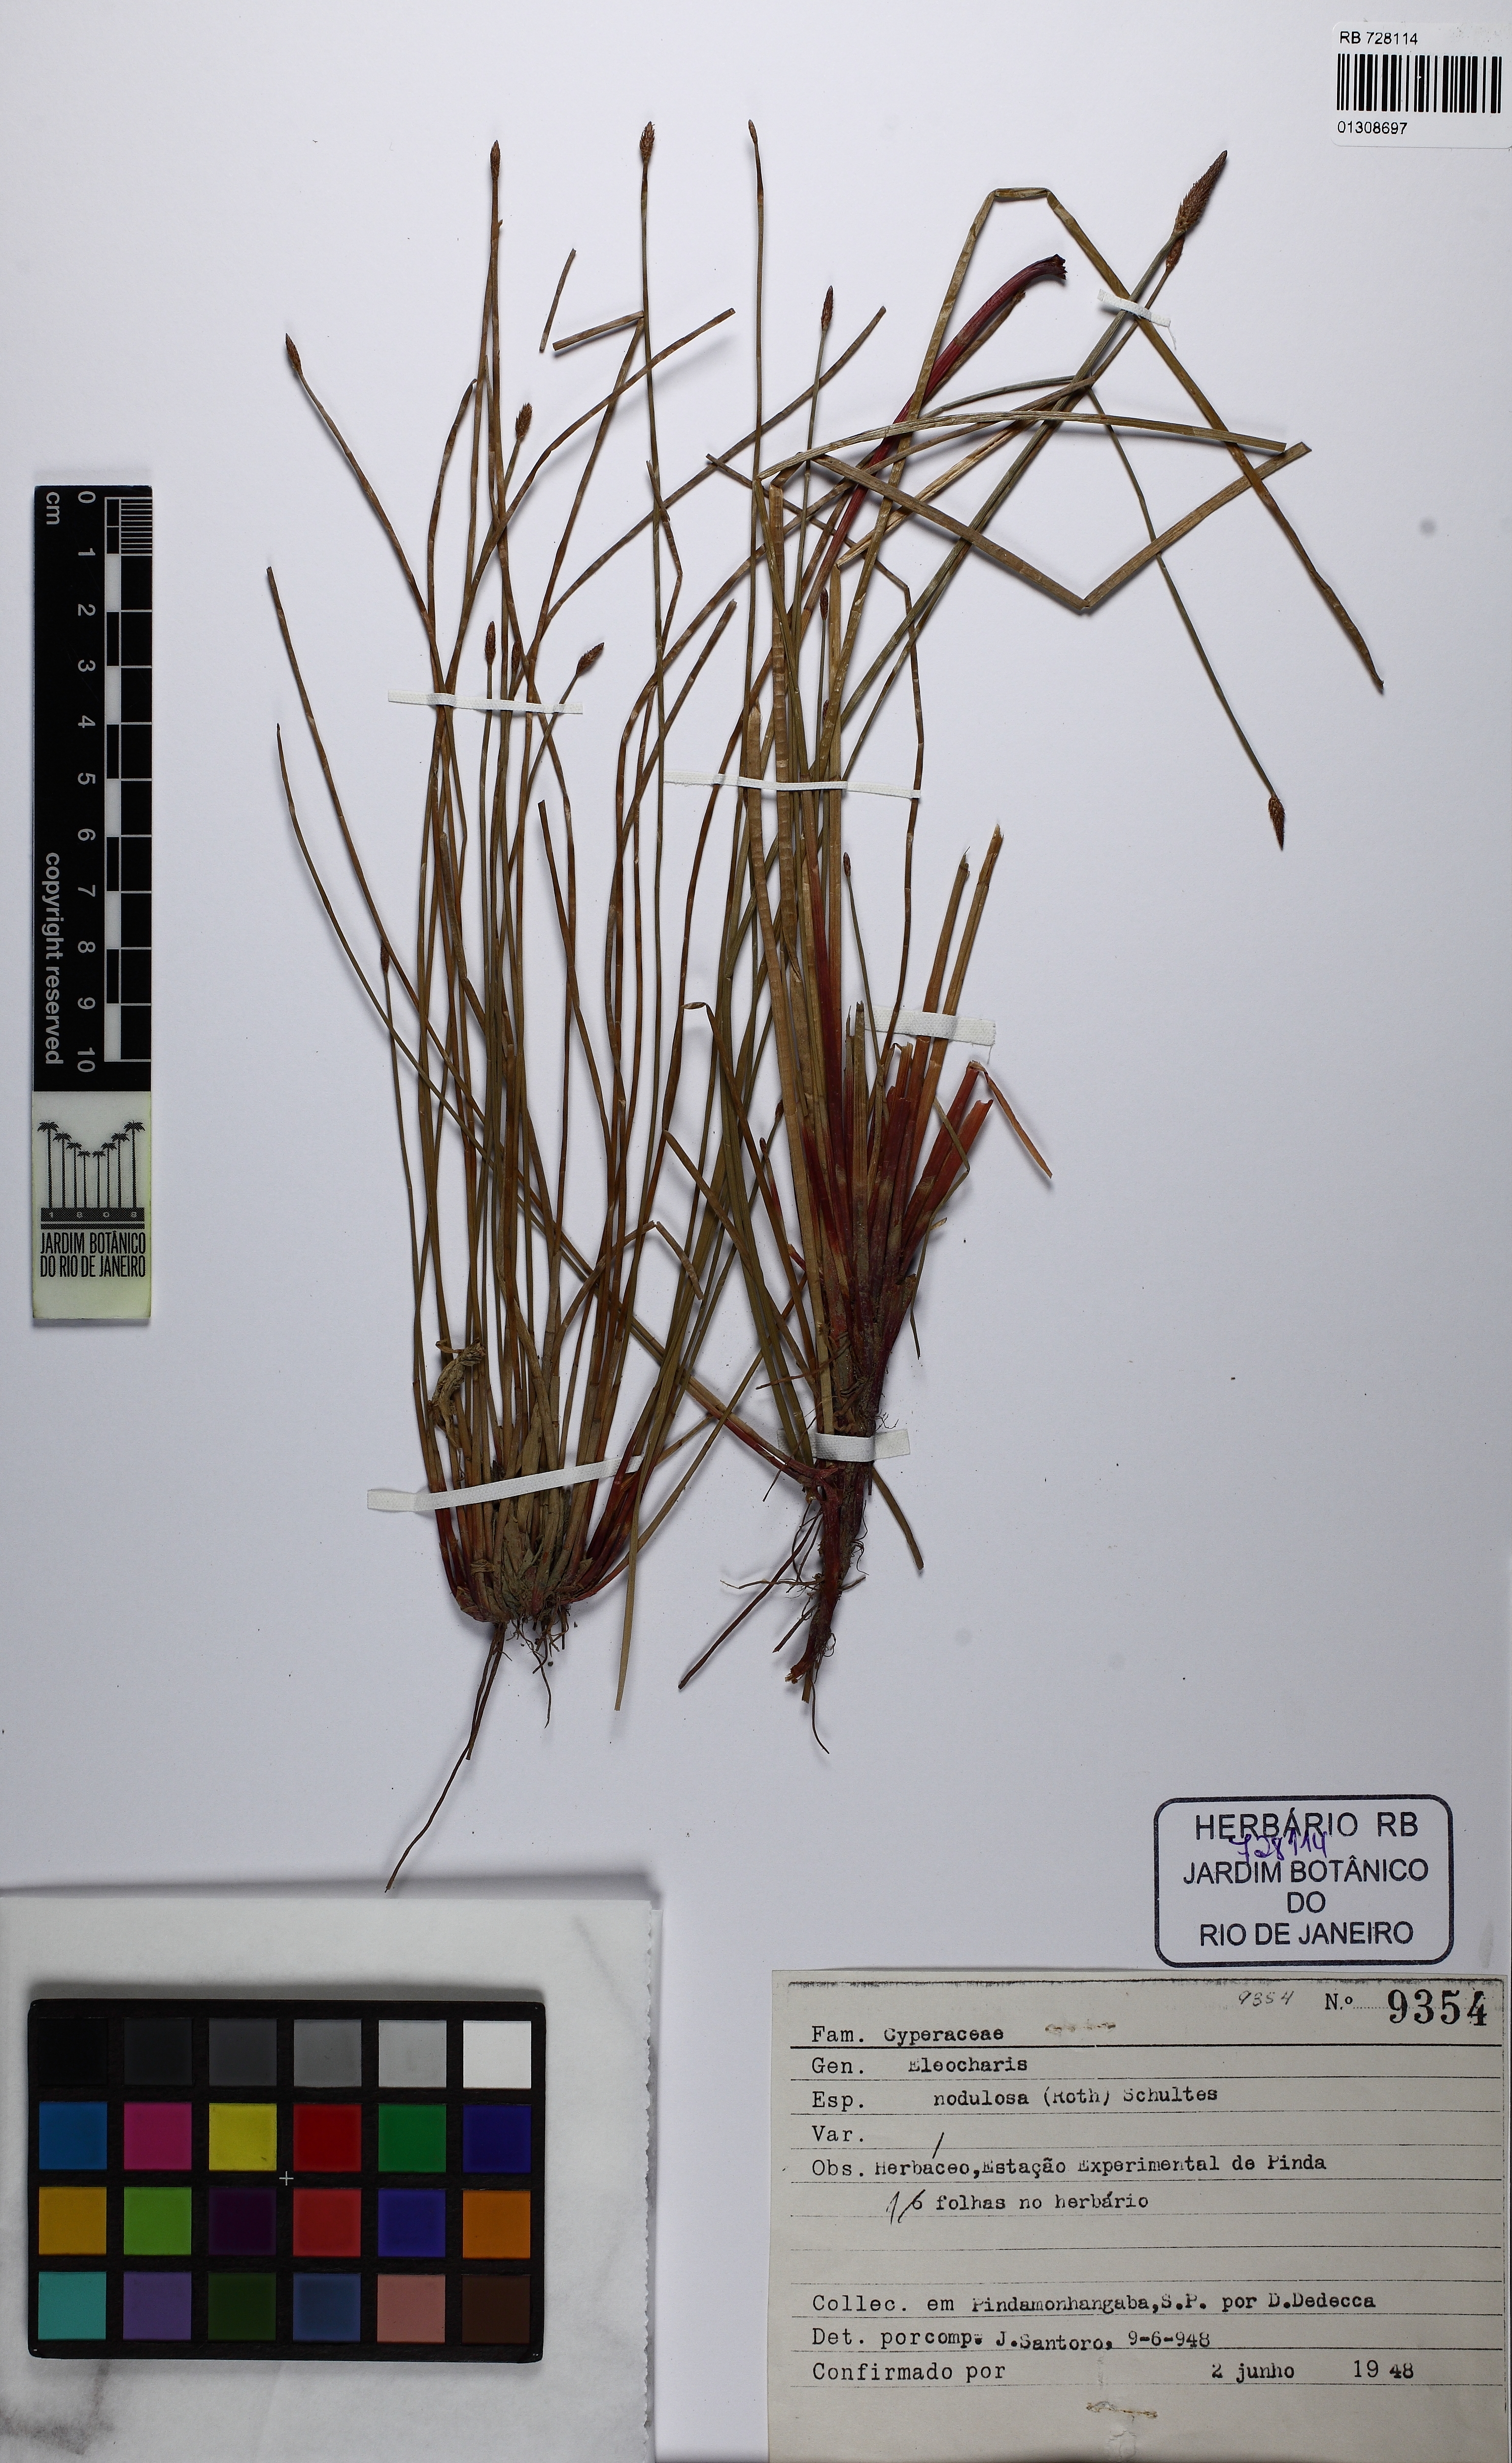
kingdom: Plantae
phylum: Tracheophyta
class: Liliopsida
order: Poales
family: Cyperaceae
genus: Eleocharis
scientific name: Eleocharis montana
